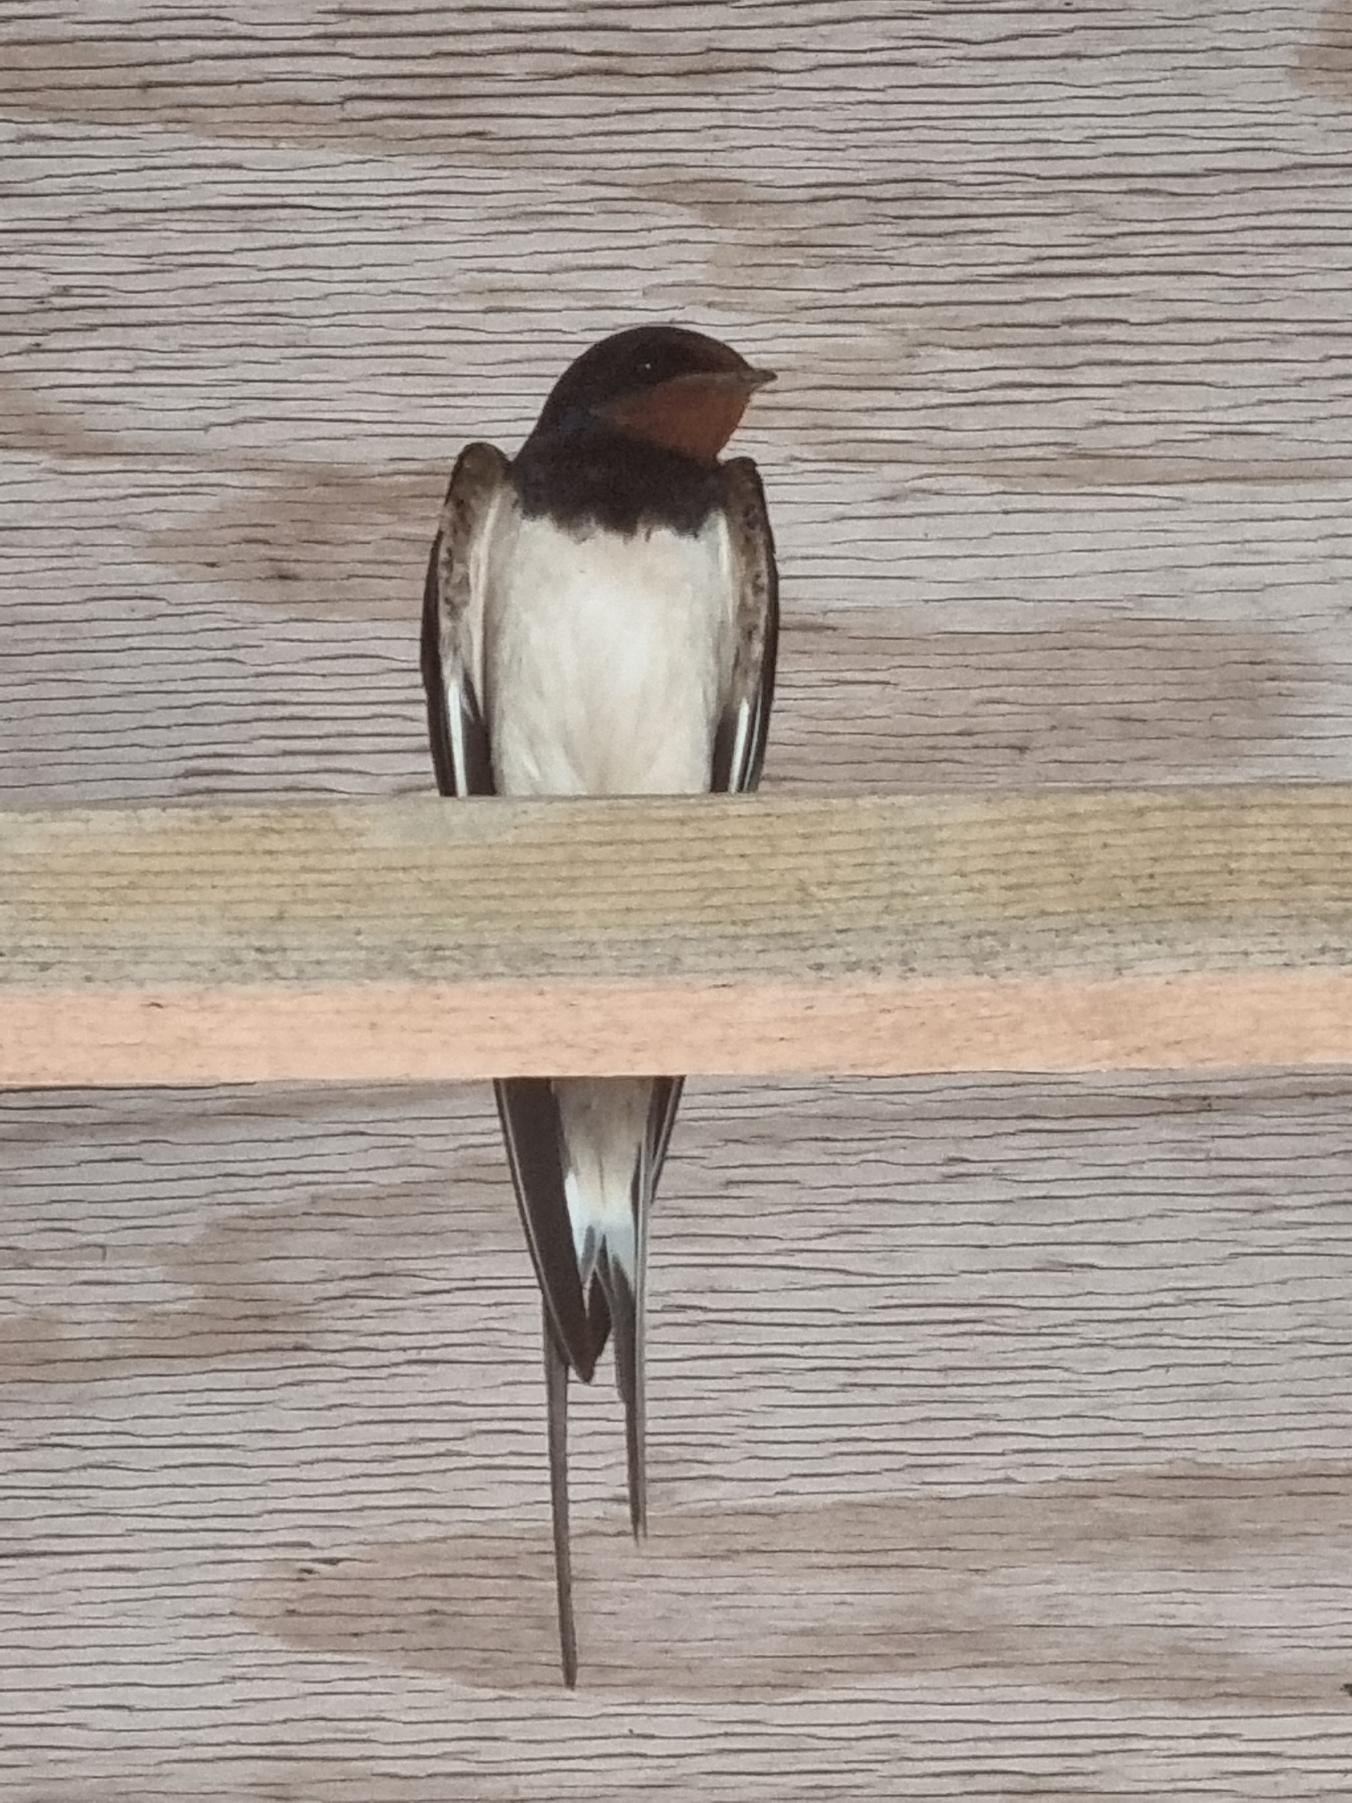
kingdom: Animalia
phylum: Chordata
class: Aves
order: Passeriformes
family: Hirundinidae
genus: Hirundo
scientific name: Hirundo rustica
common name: Landsvale
